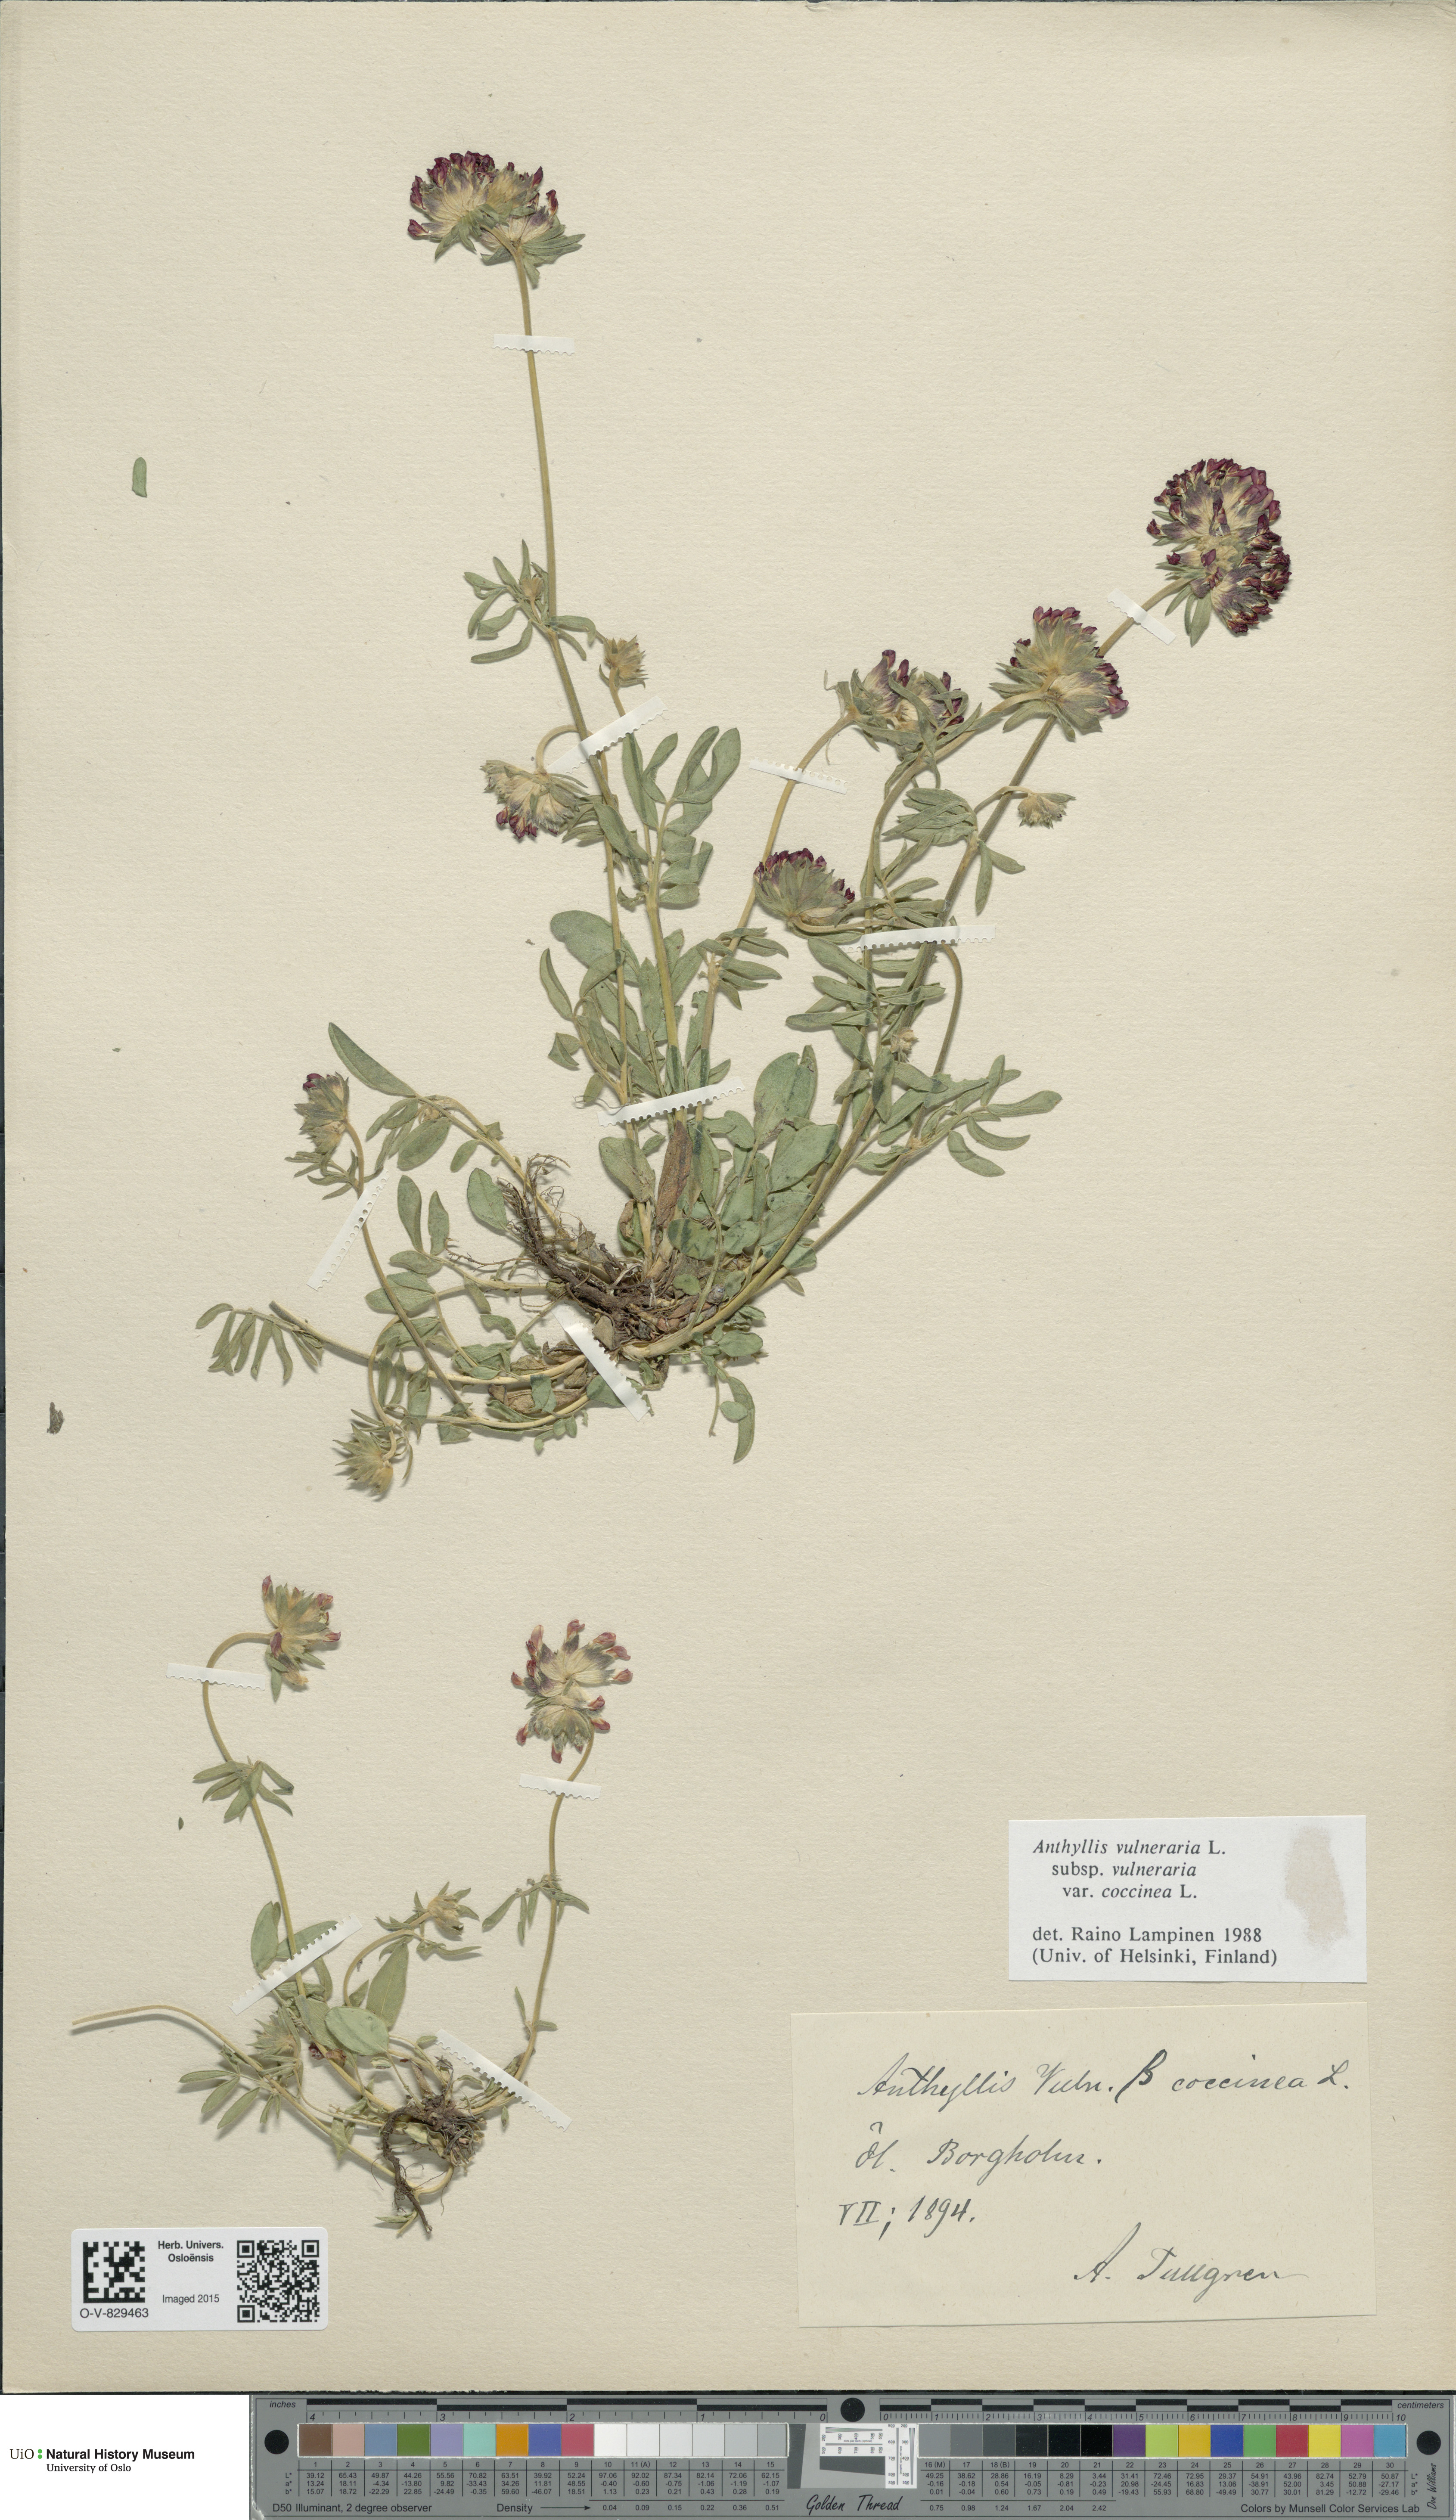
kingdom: Plantae
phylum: Tracheophyta
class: Magnoliopsida
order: Fabales
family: Fabaceae
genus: Anthyllis
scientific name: Anthyllis vulneraria
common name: Kidney vetch
